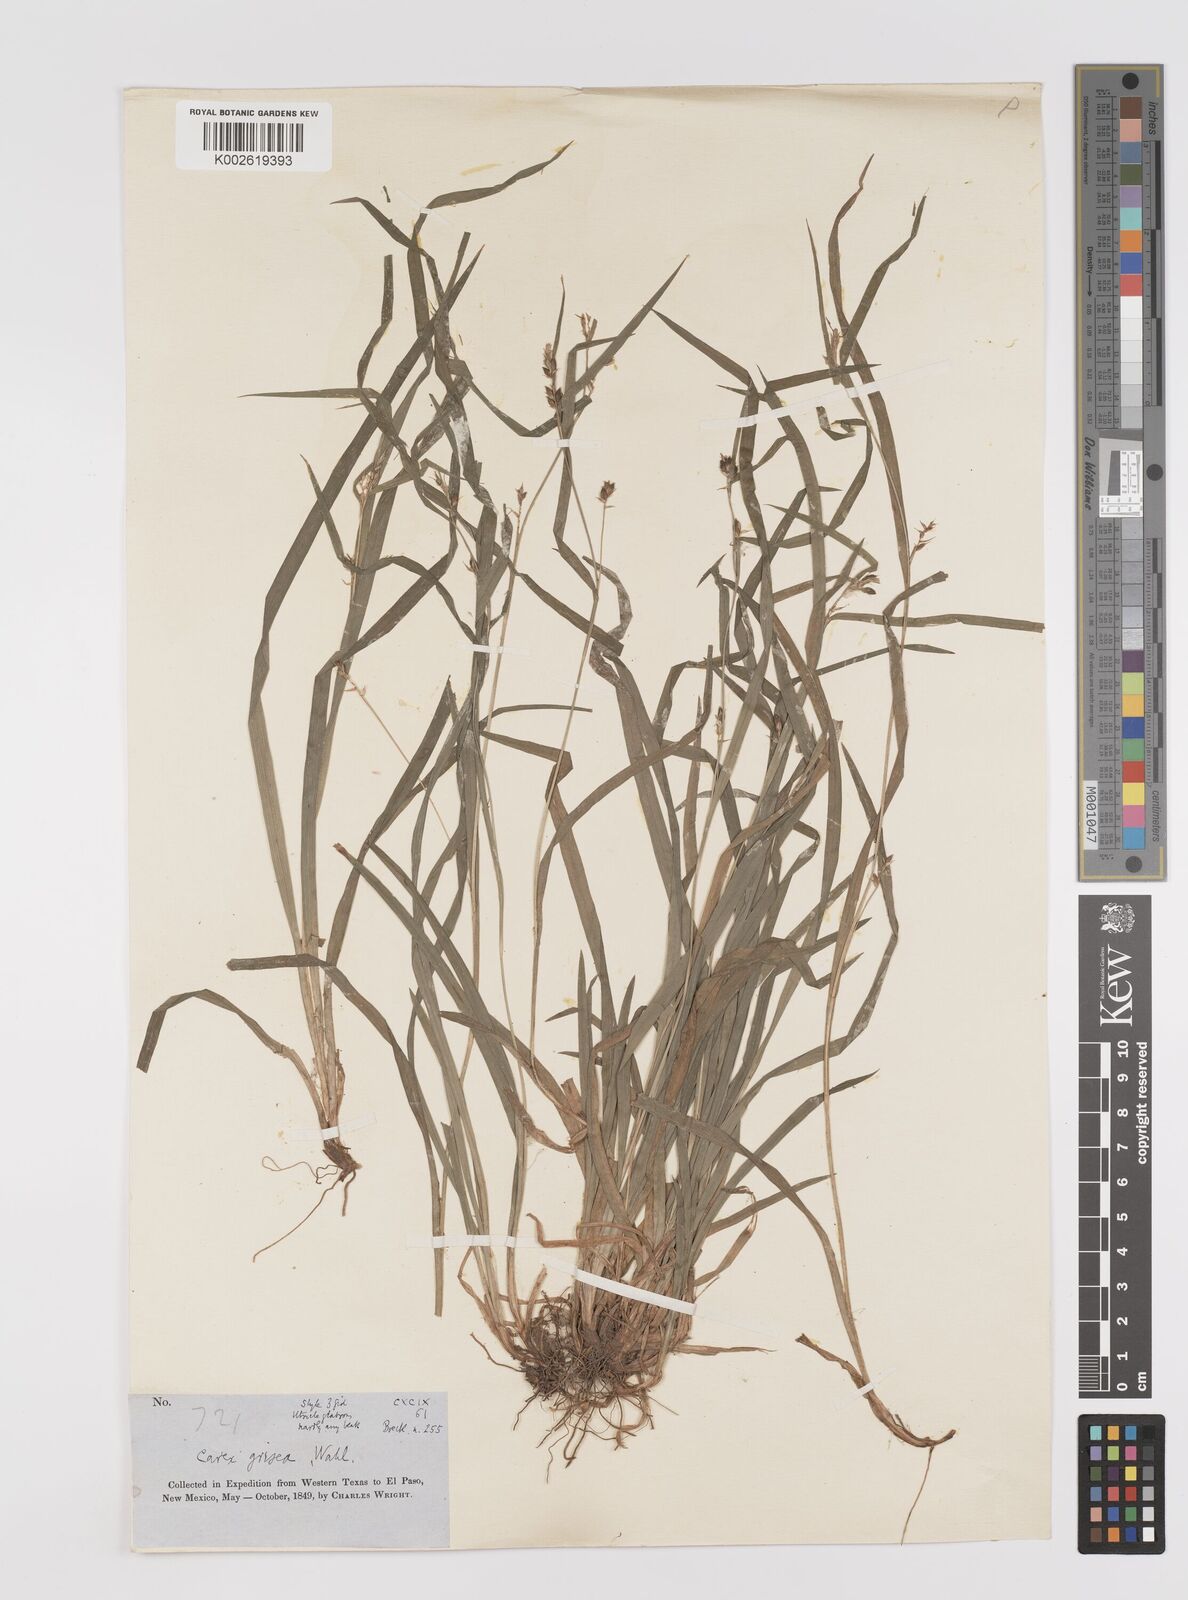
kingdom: Plantae
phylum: Tracheophyta
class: Liliopsida
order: Poales
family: Cyperaceae
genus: Carex
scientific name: Carex grisea
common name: Eastern narrow-leaved sedge
